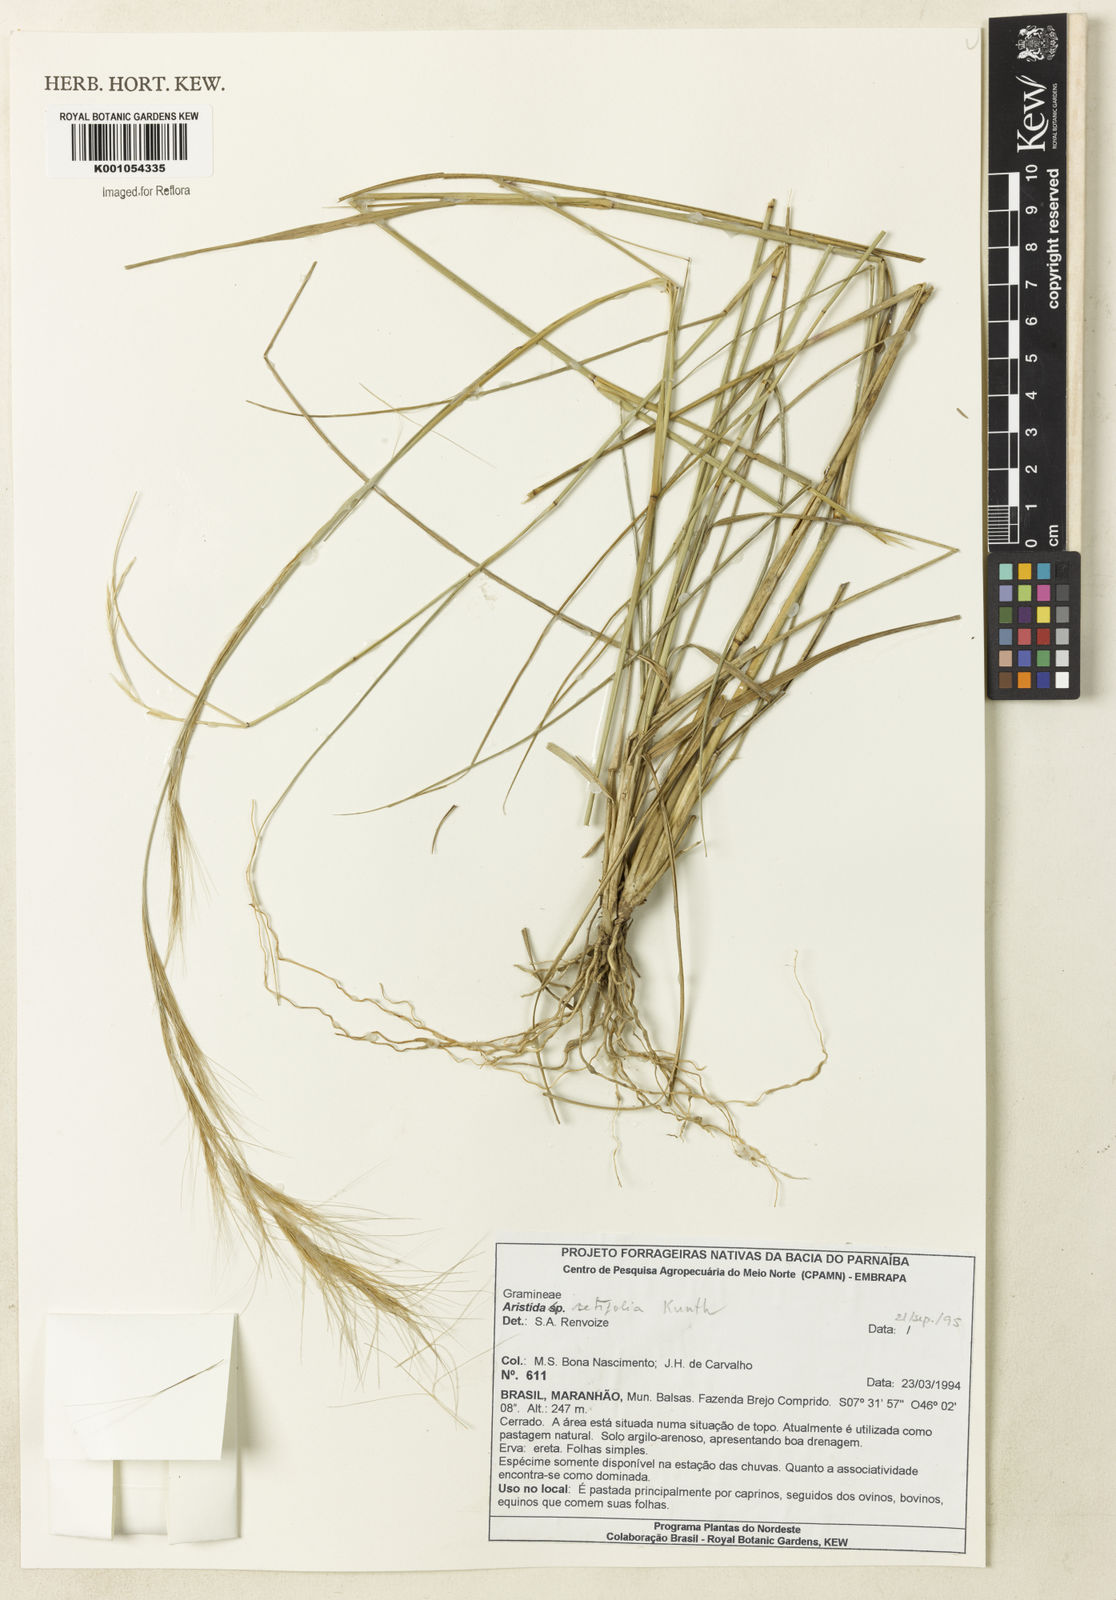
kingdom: Plantae
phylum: Tracheophyta
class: Liliopsida
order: Poales
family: Poaceae
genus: Aristida
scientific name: Aristida setifolia
